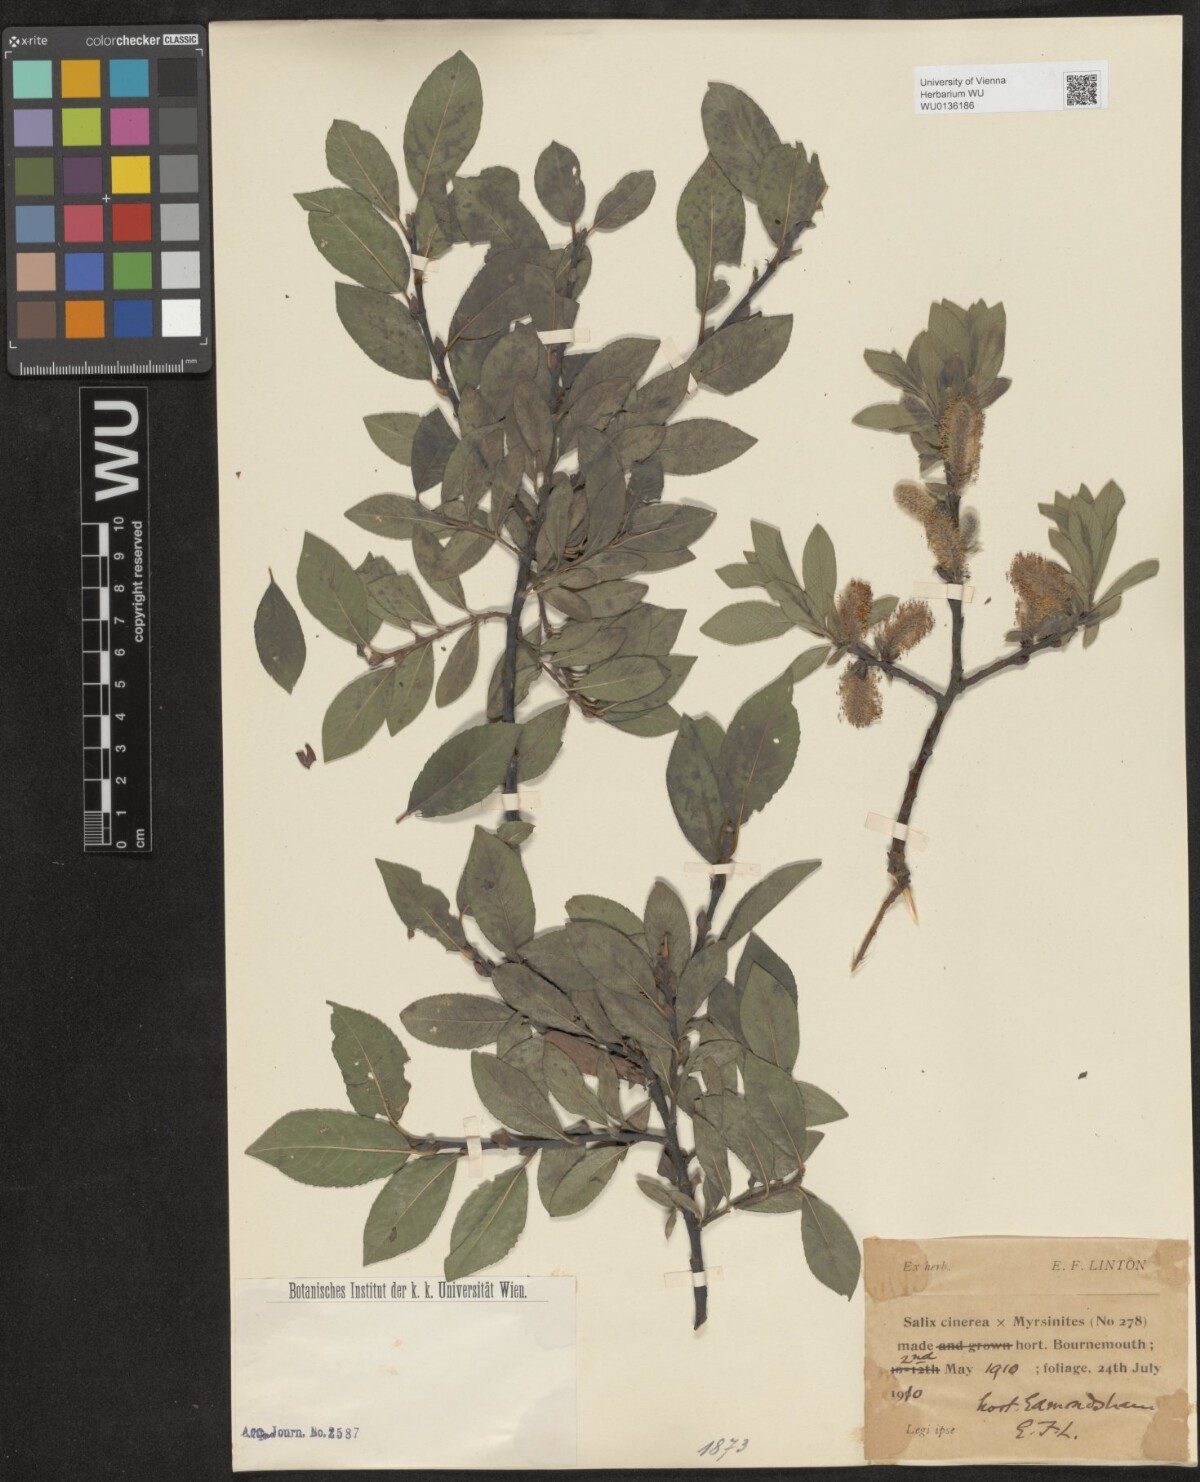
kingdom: Plantae
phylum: Tracheophyta
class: Magnoliopsida
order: Malpighiales
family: Salicaceae
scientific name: Salicaceae
